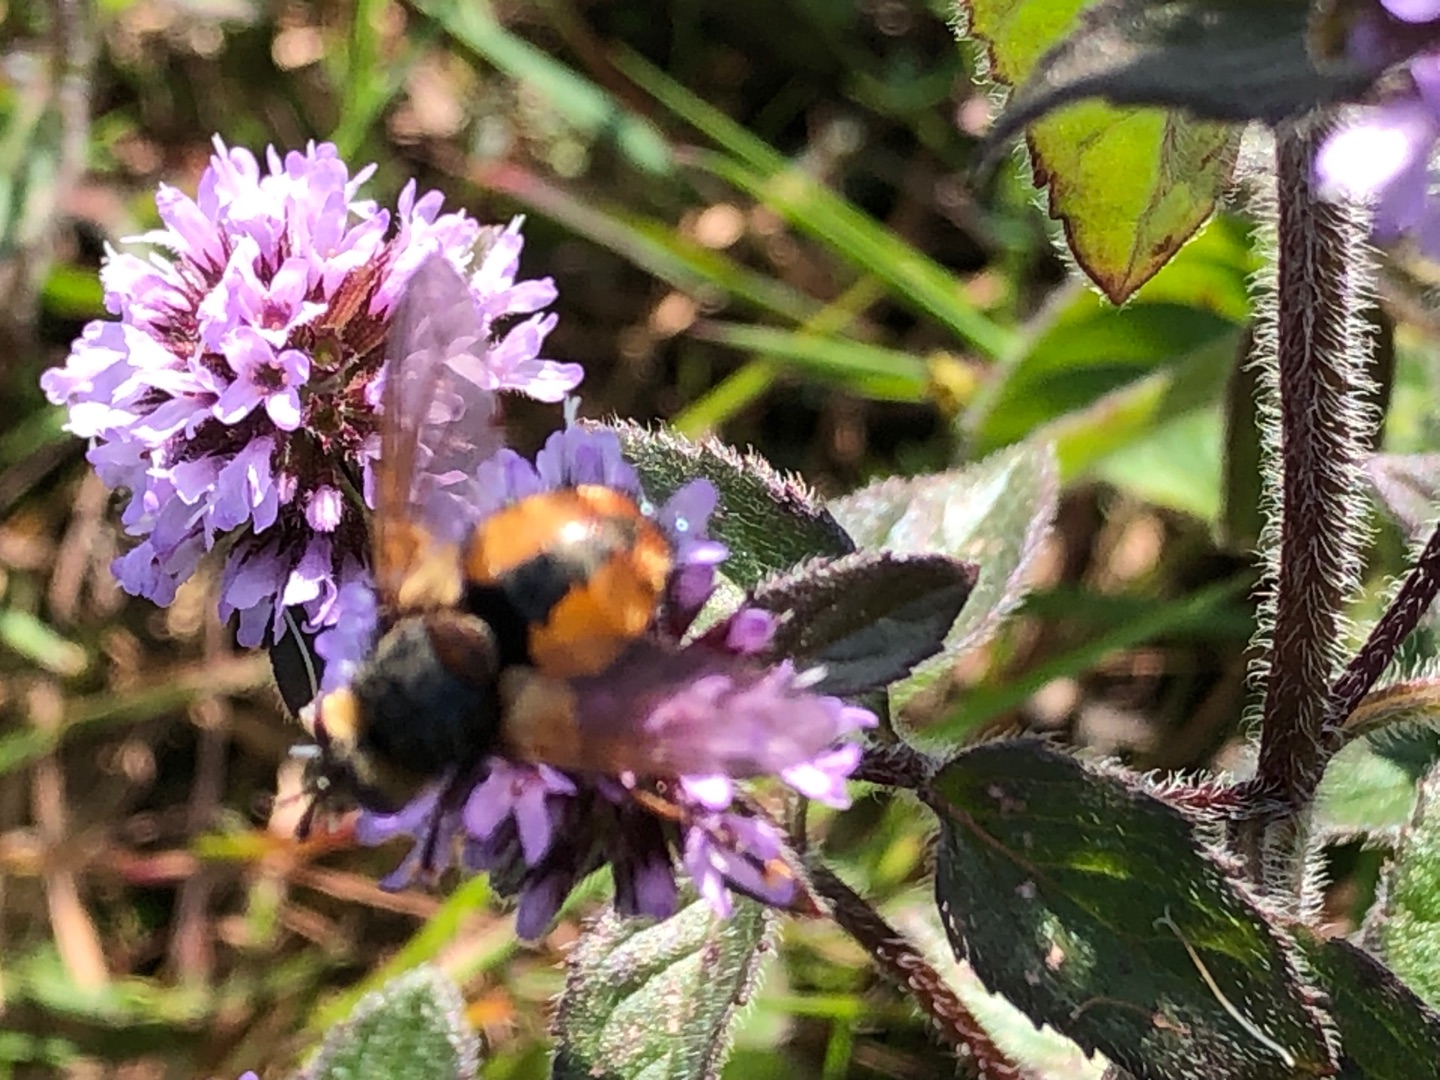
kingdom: Animalia
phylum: Arthropoda
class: Insecta
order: Diptera
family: Tachinidae
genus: Tachina
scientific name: Tachina fera
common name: Mellemfluen oskar
